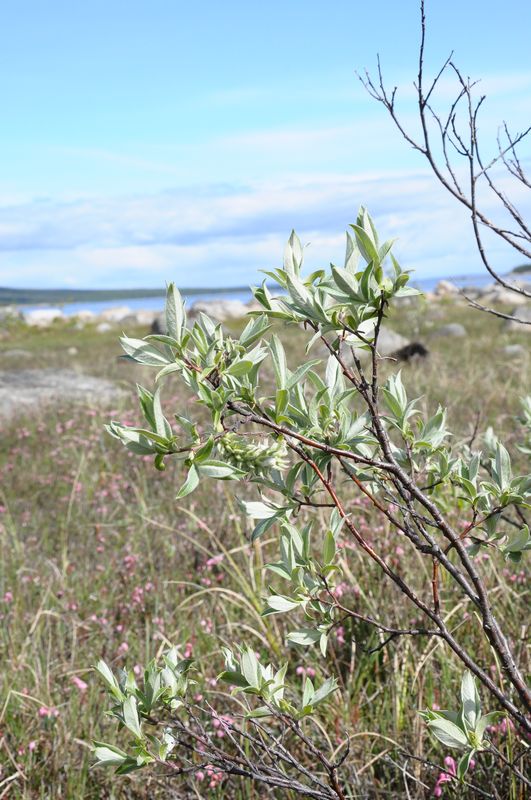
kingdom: Plantae
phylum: Tracheophyta
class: Magnoliopsida
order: Malpighiales
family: Salicaceae
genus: Salix
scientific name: Salix lapponum
